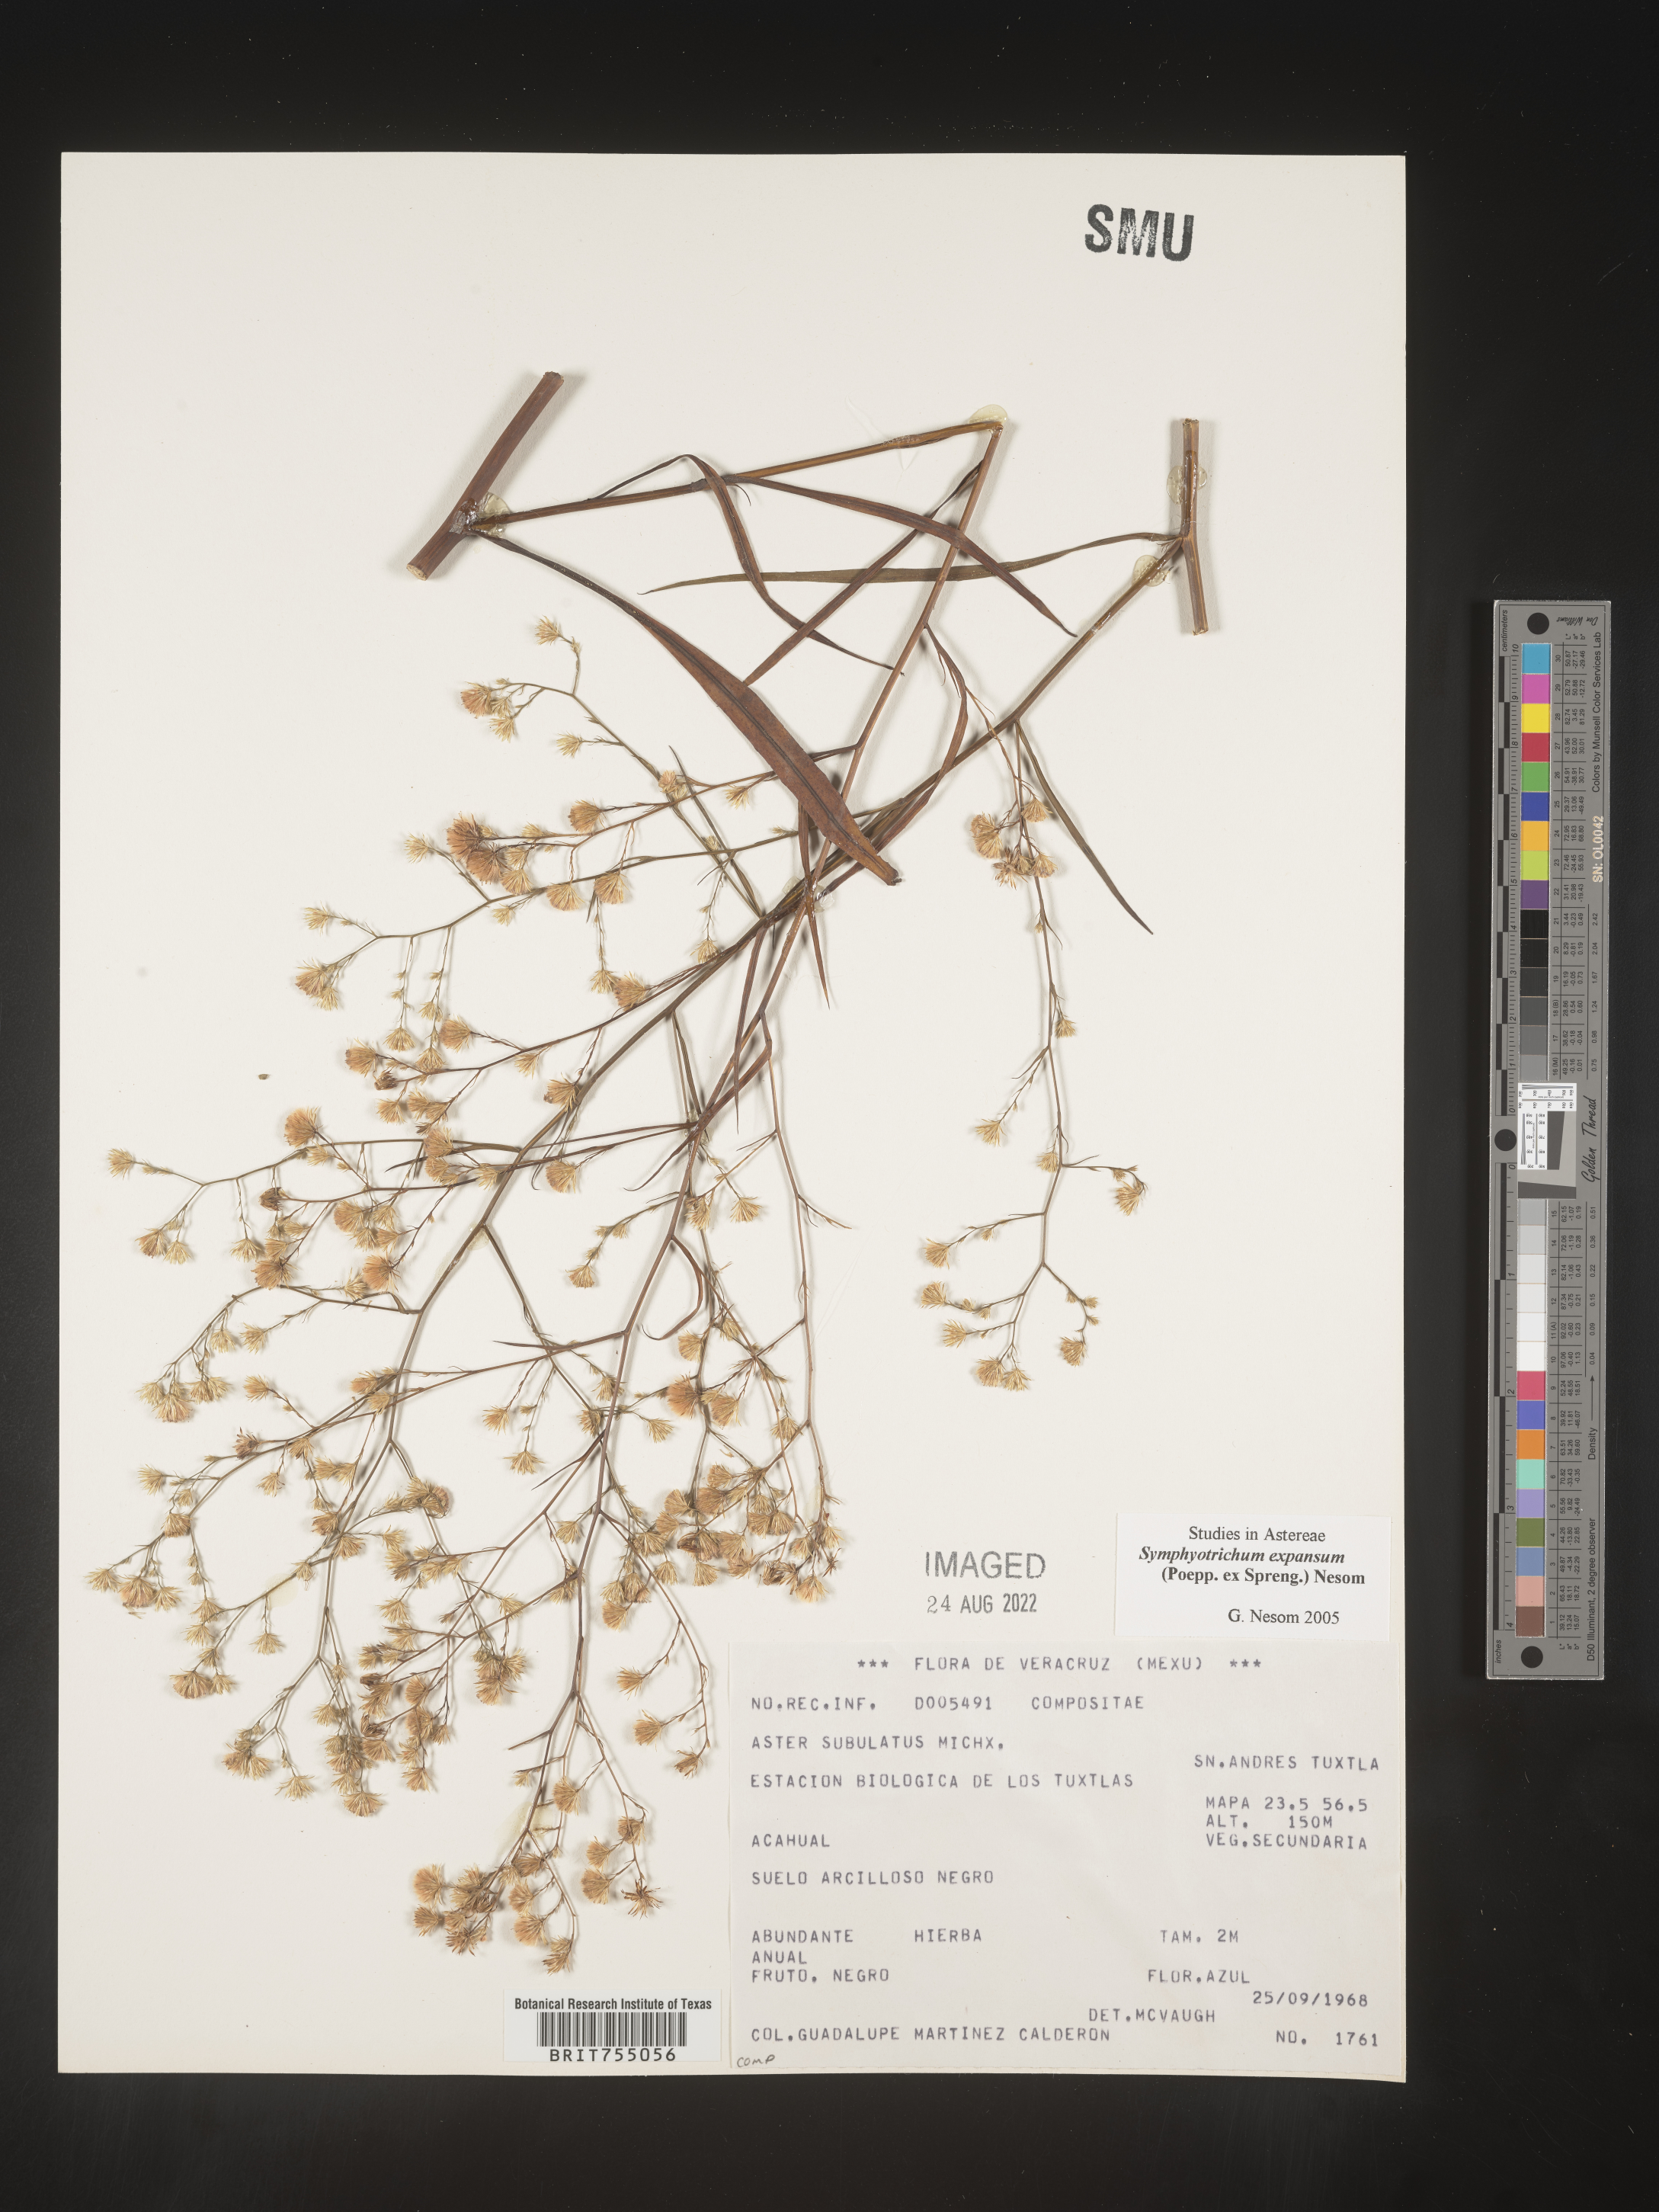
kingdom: Plantae
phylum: Tracheophyta
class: Magnoliopsida
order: Asterales
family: Asteraceae
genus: Symphyotrichum
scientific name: Symphyotrichum expansum
